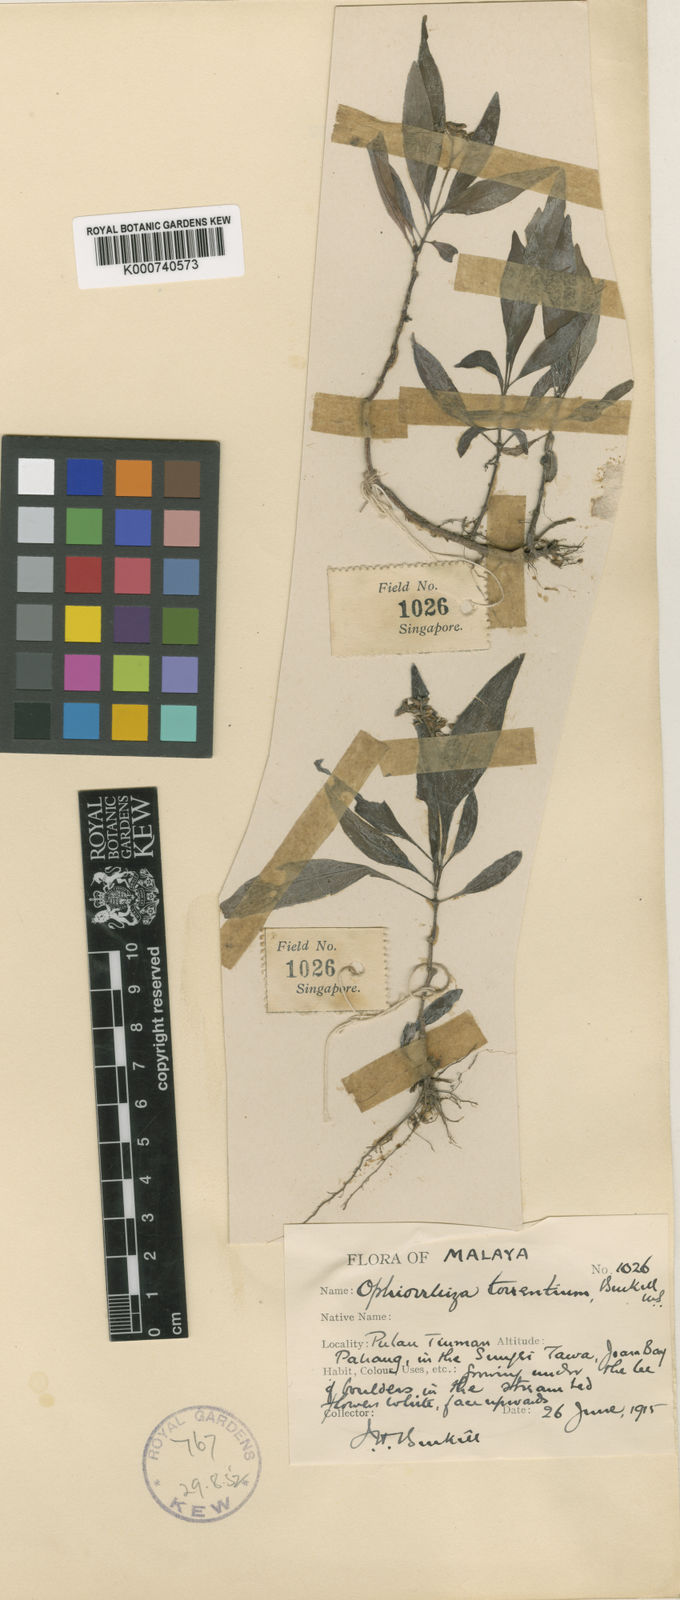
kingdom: Plantae
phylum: Tracheophyta
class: Magnoliopsida
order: Gentianales
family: Rubiaceae
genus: Ophiorrhiza
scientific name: Ophiorrhiza solandri
